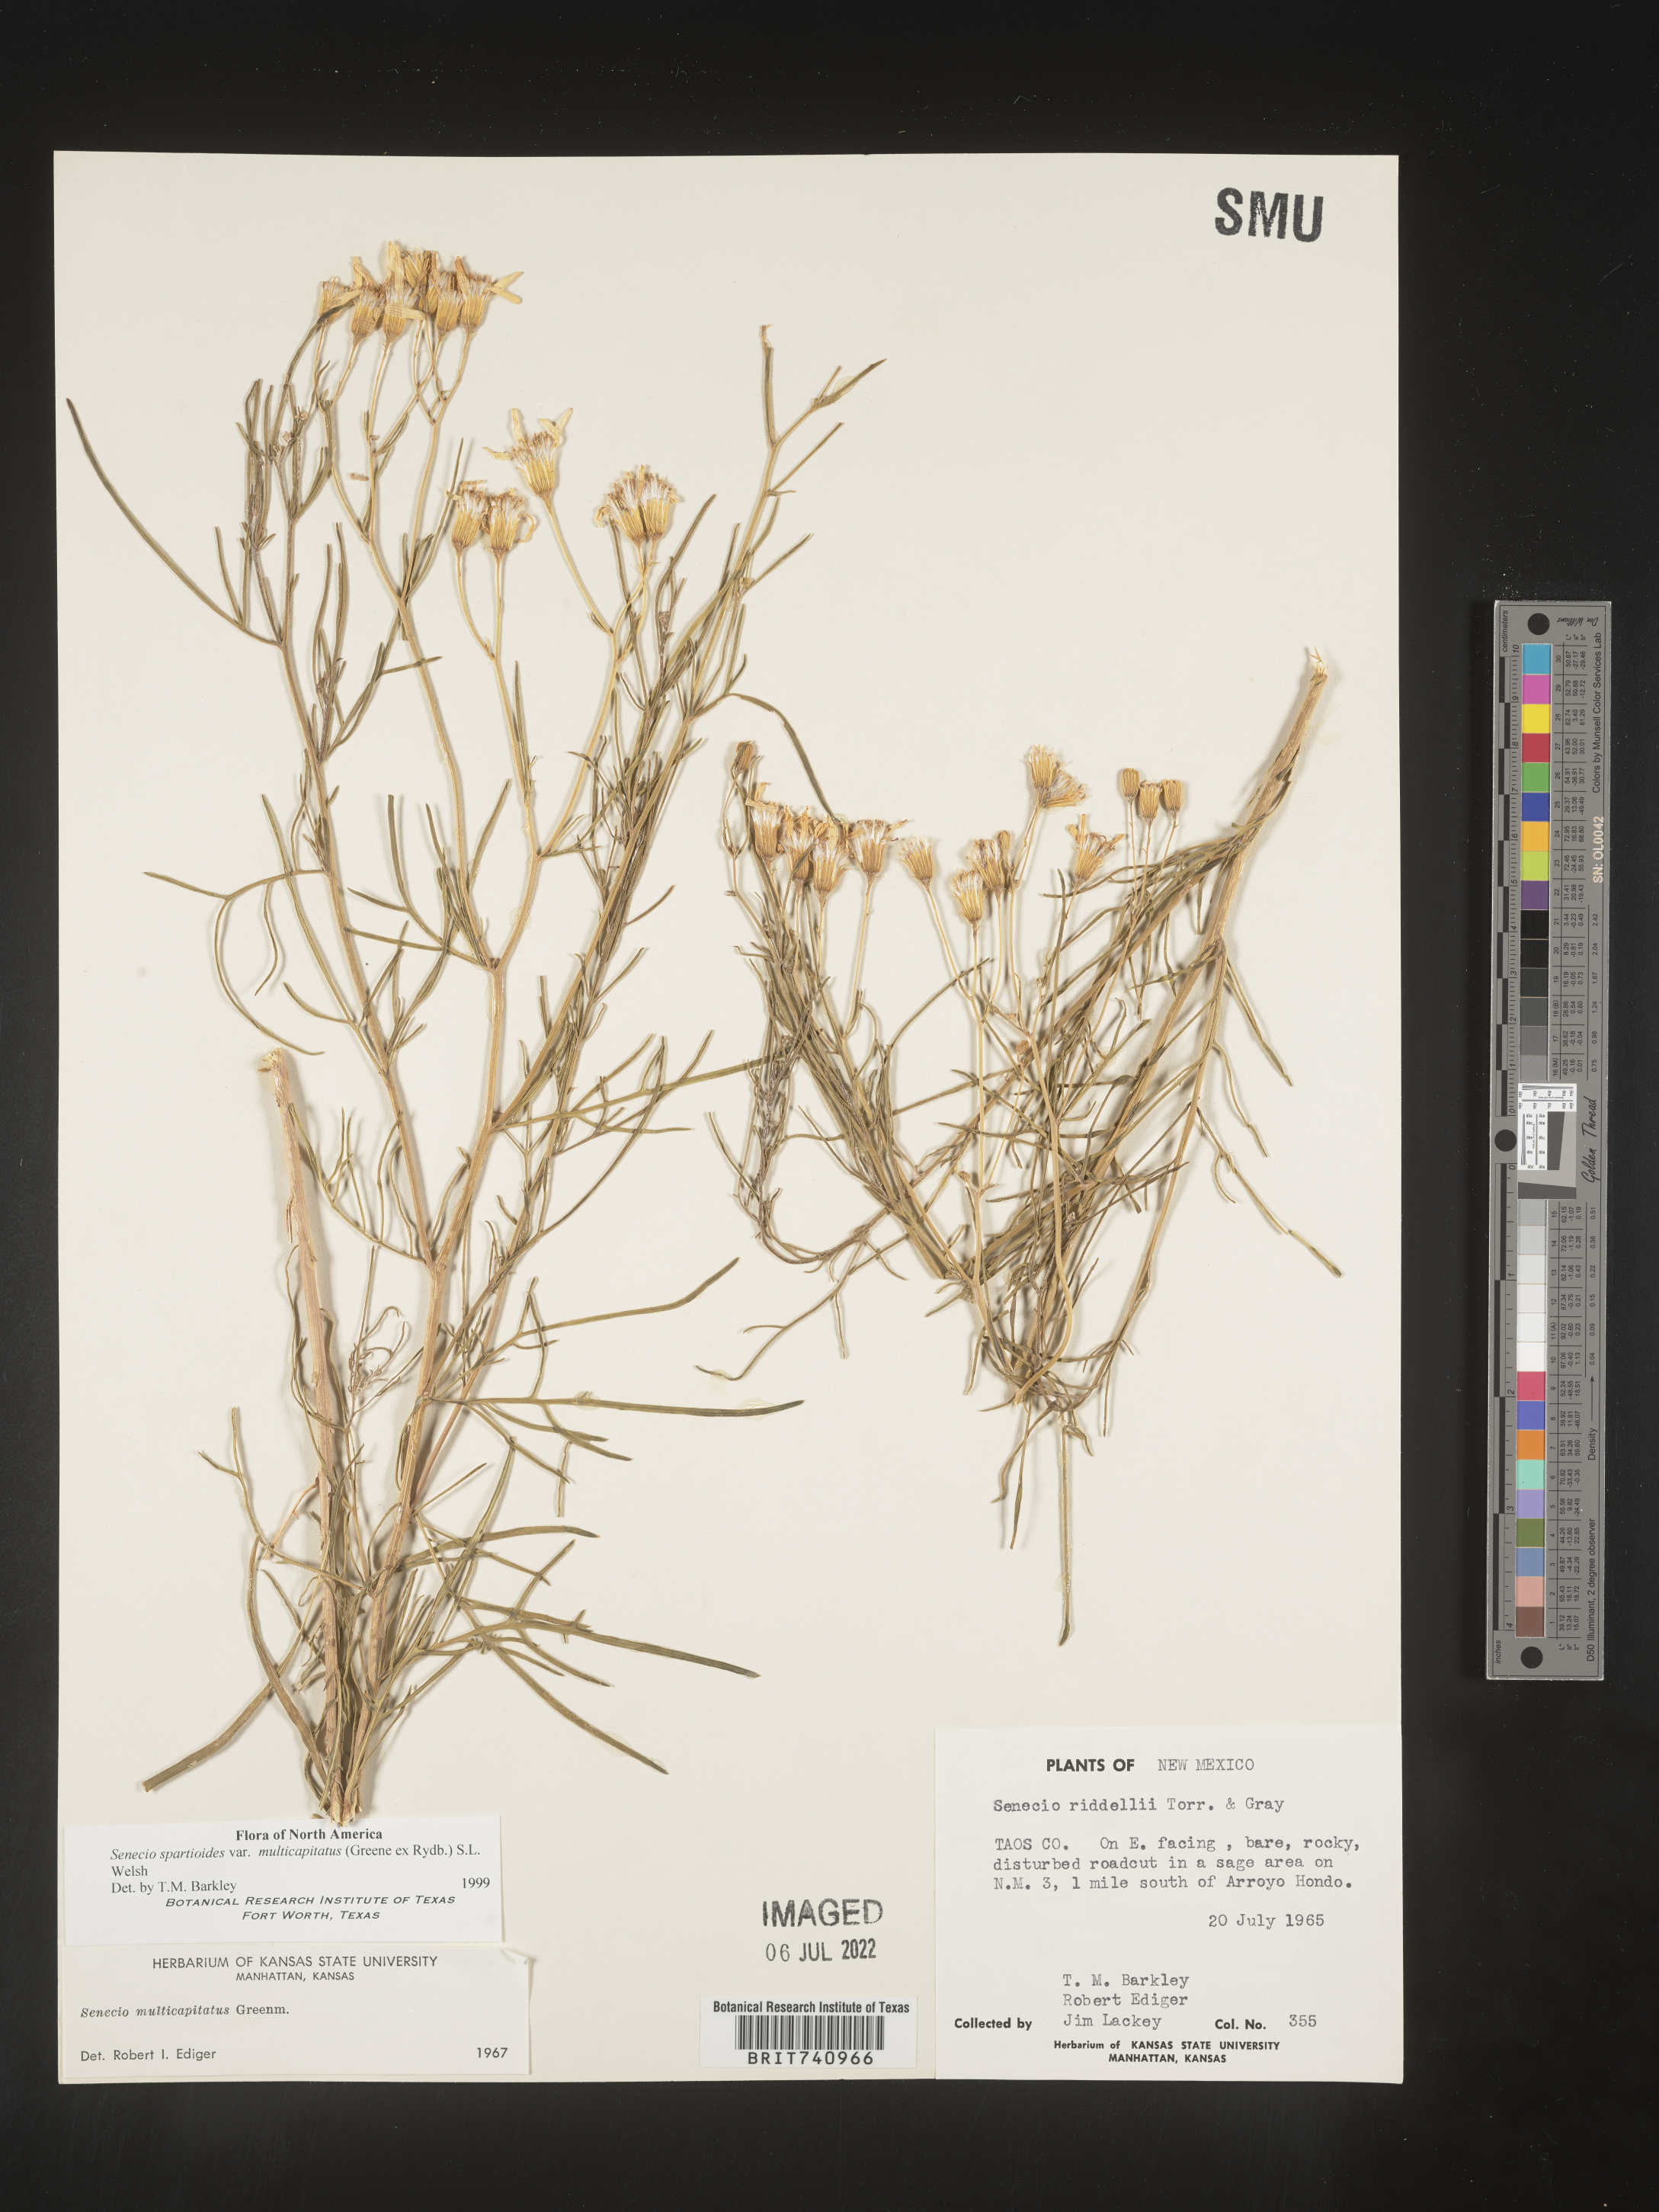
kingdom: Plantae
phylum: Tracheophyta
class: Magnoliopsida
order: Asterales
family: Asteraceae
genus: Senecio
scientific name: Senecio spartioides
